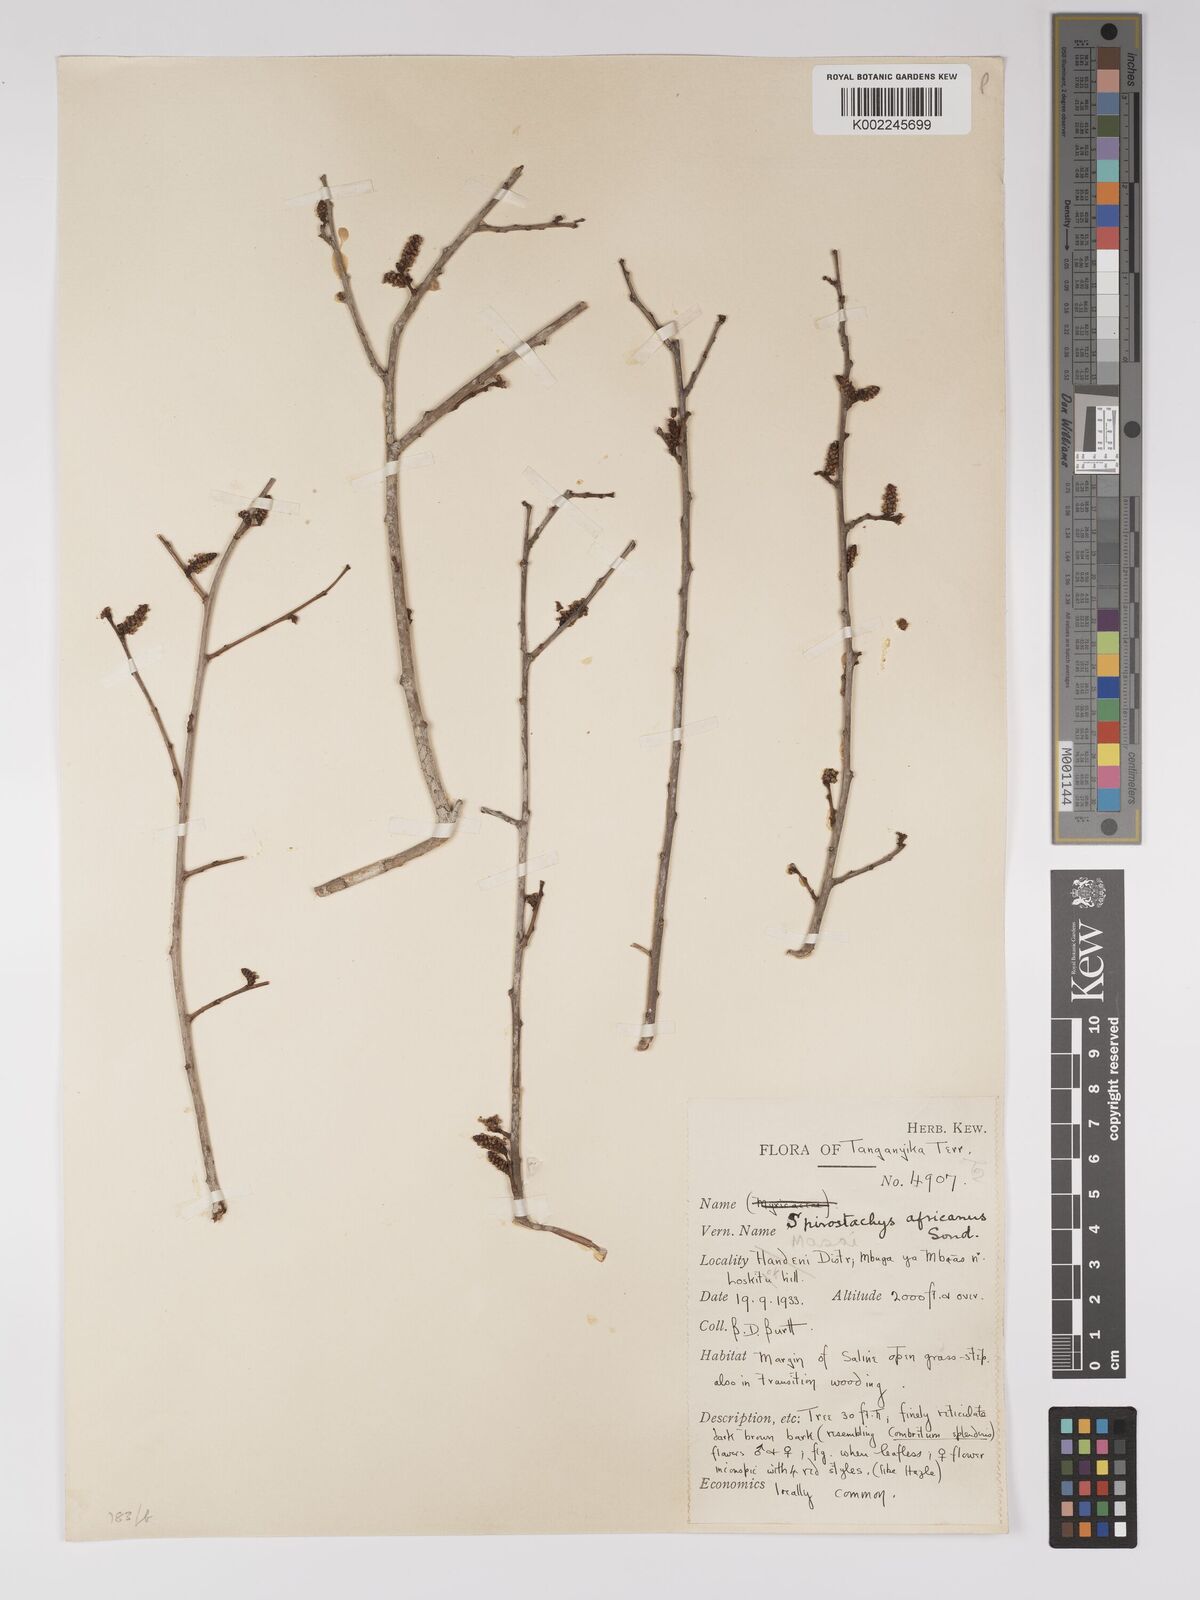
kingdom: Plantae
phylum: Tracheophyta
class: Magnoliopsida
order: Malpighiales
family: Euphorbiaceae
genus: Spirostachys
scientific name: Spirostachys africana
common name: Tamboti
